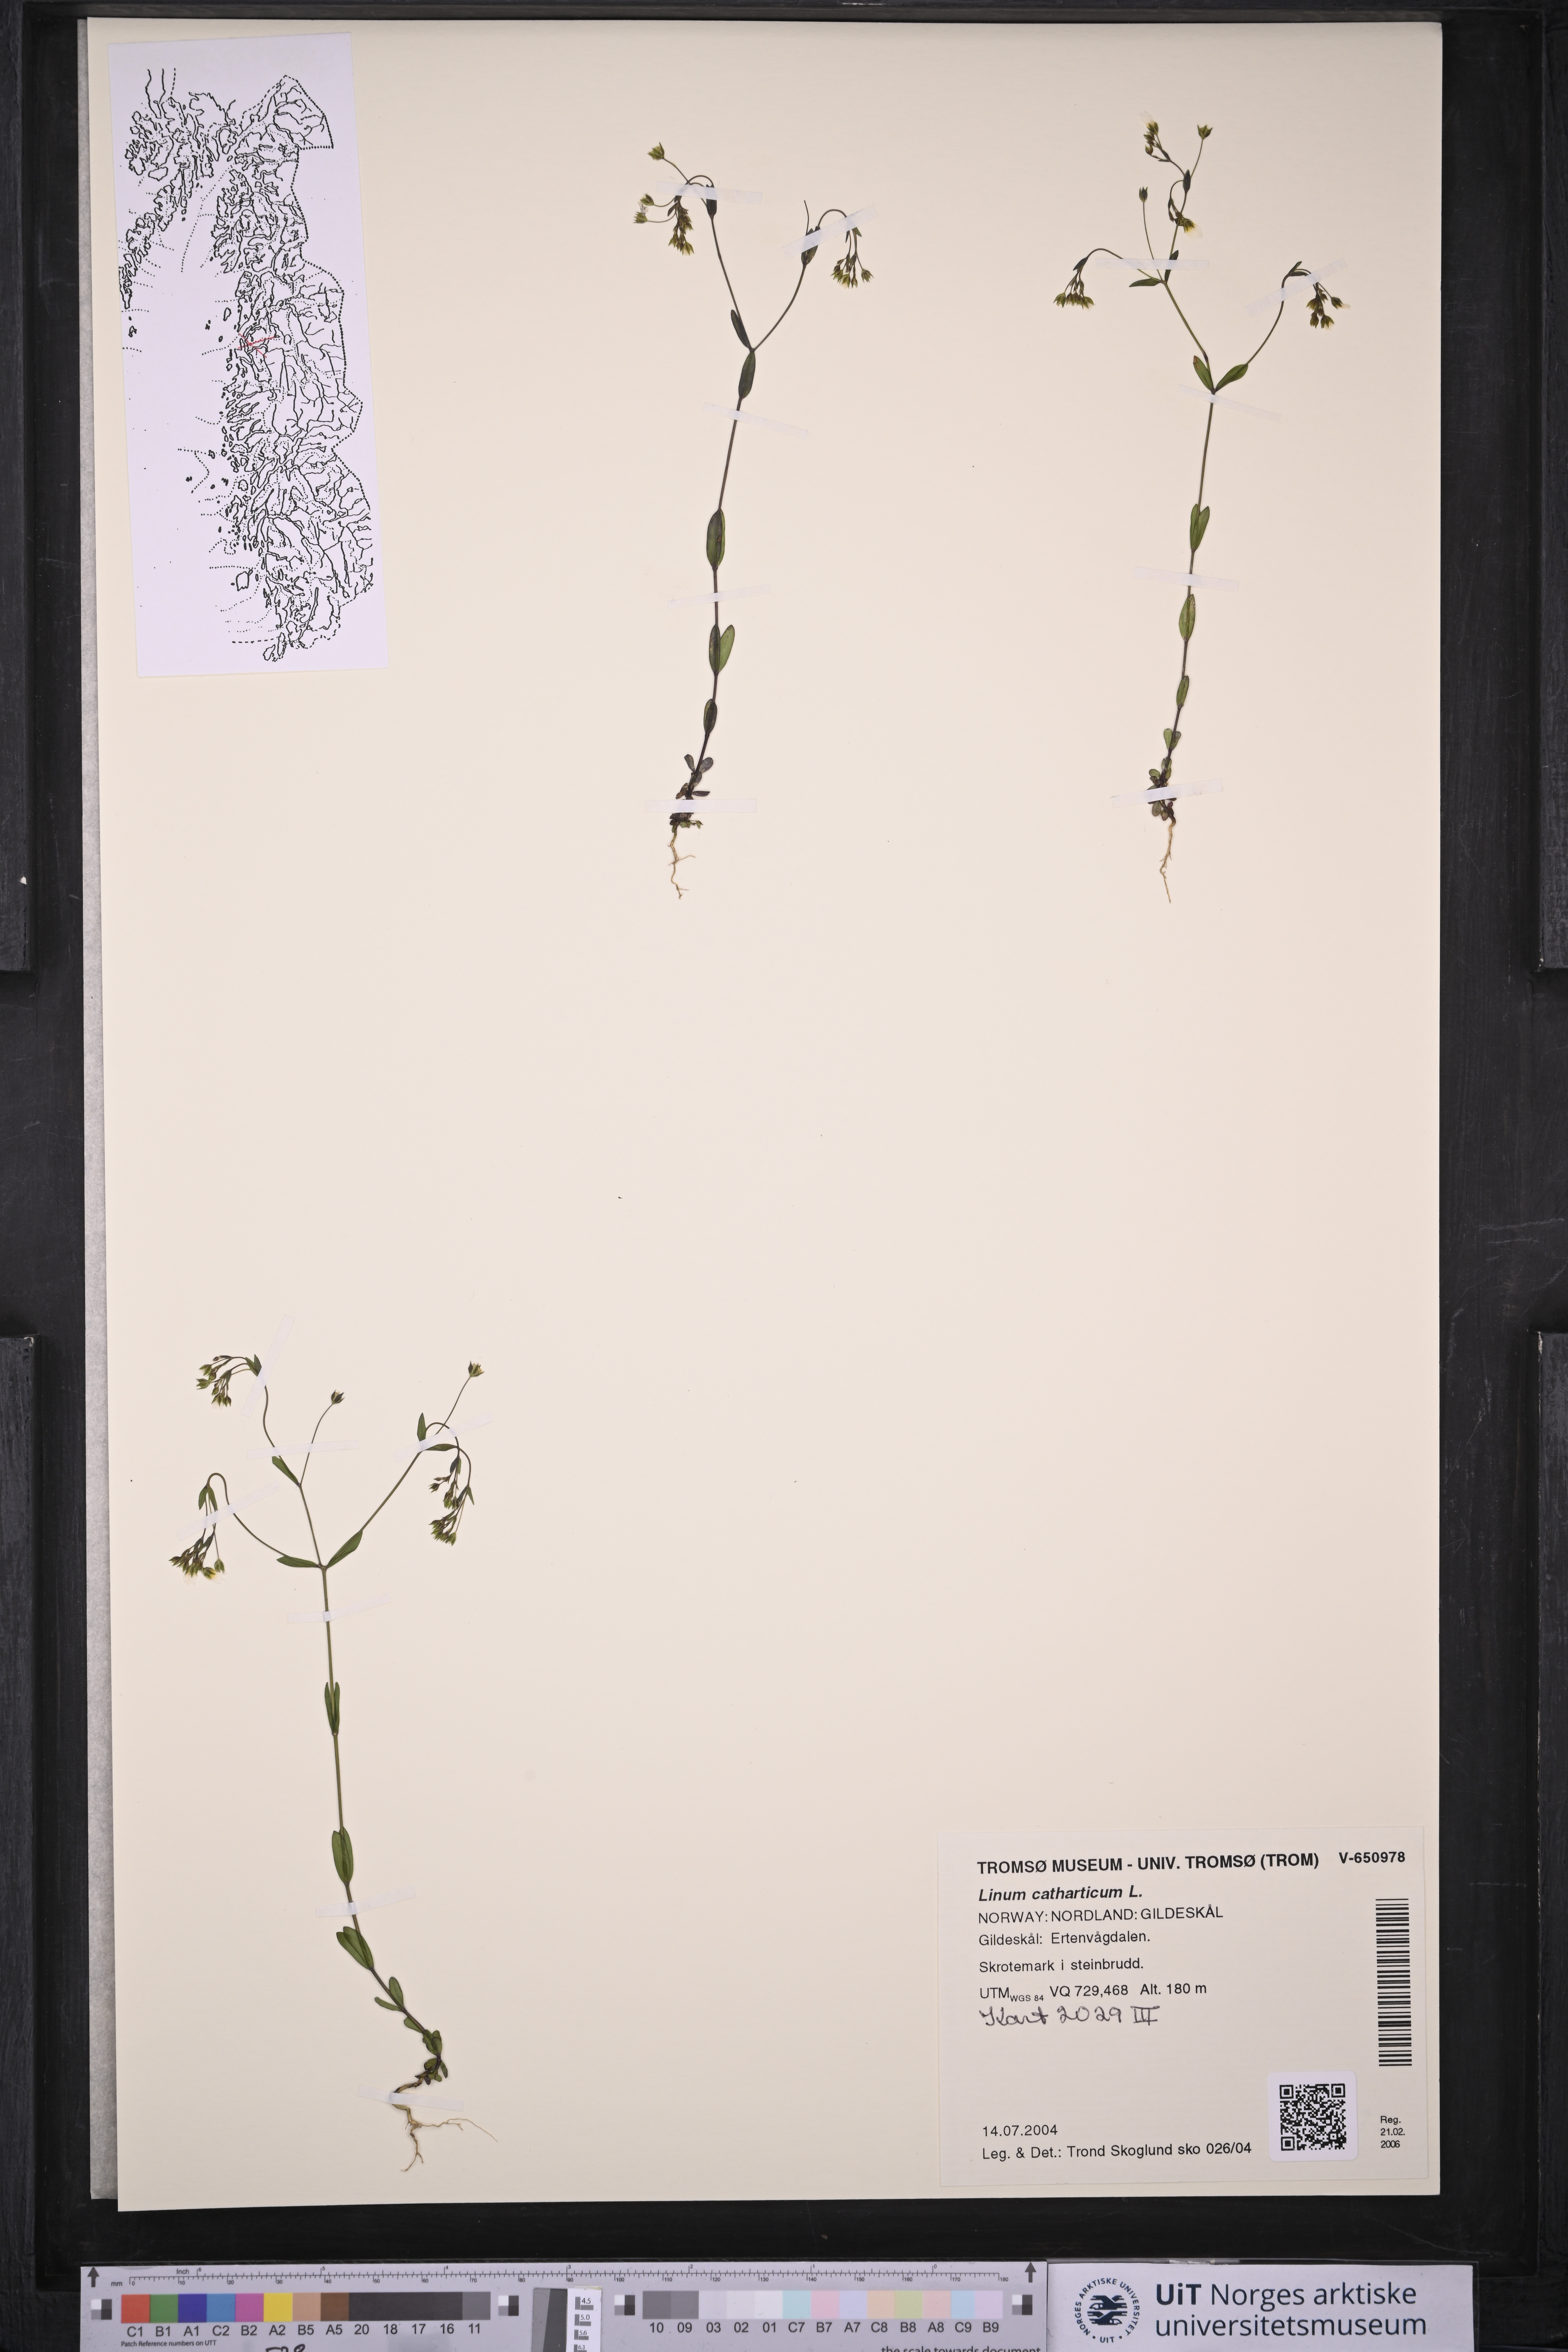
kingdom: Plantae
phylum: Tracheophyta
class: Magnoliopsida
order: Malpighiales
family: Linaceae
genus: Linum
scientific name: Linum catharticum
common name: Fairy flax
